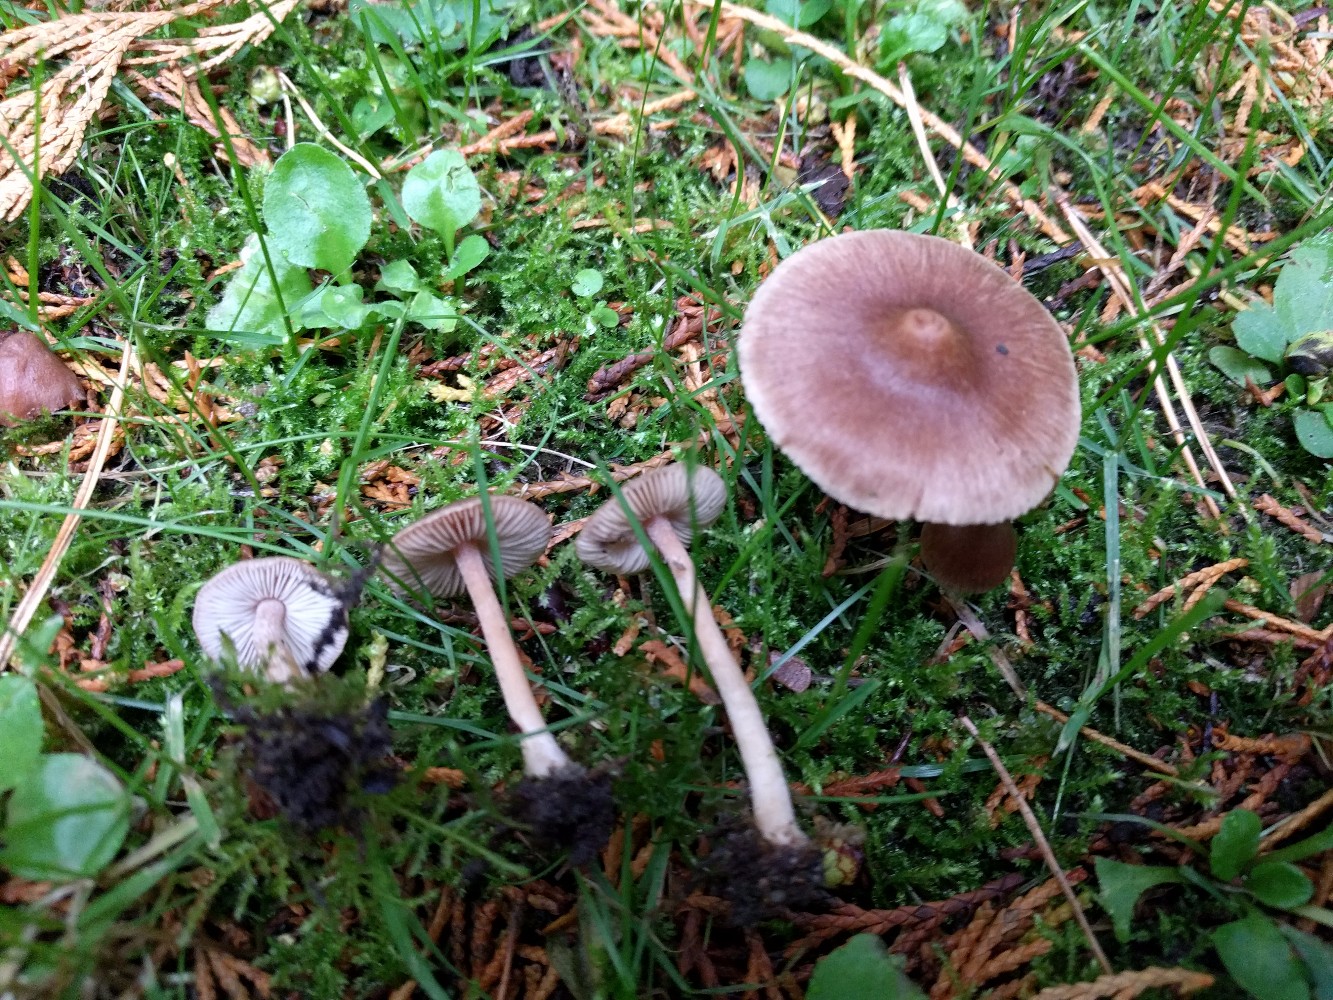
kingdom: Fungi
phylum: Basidiomycota
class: Agaricomycetes
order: Agaricales
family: Inocybaceae
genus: Inocybe
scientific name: Inocybe
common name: trævlhat
